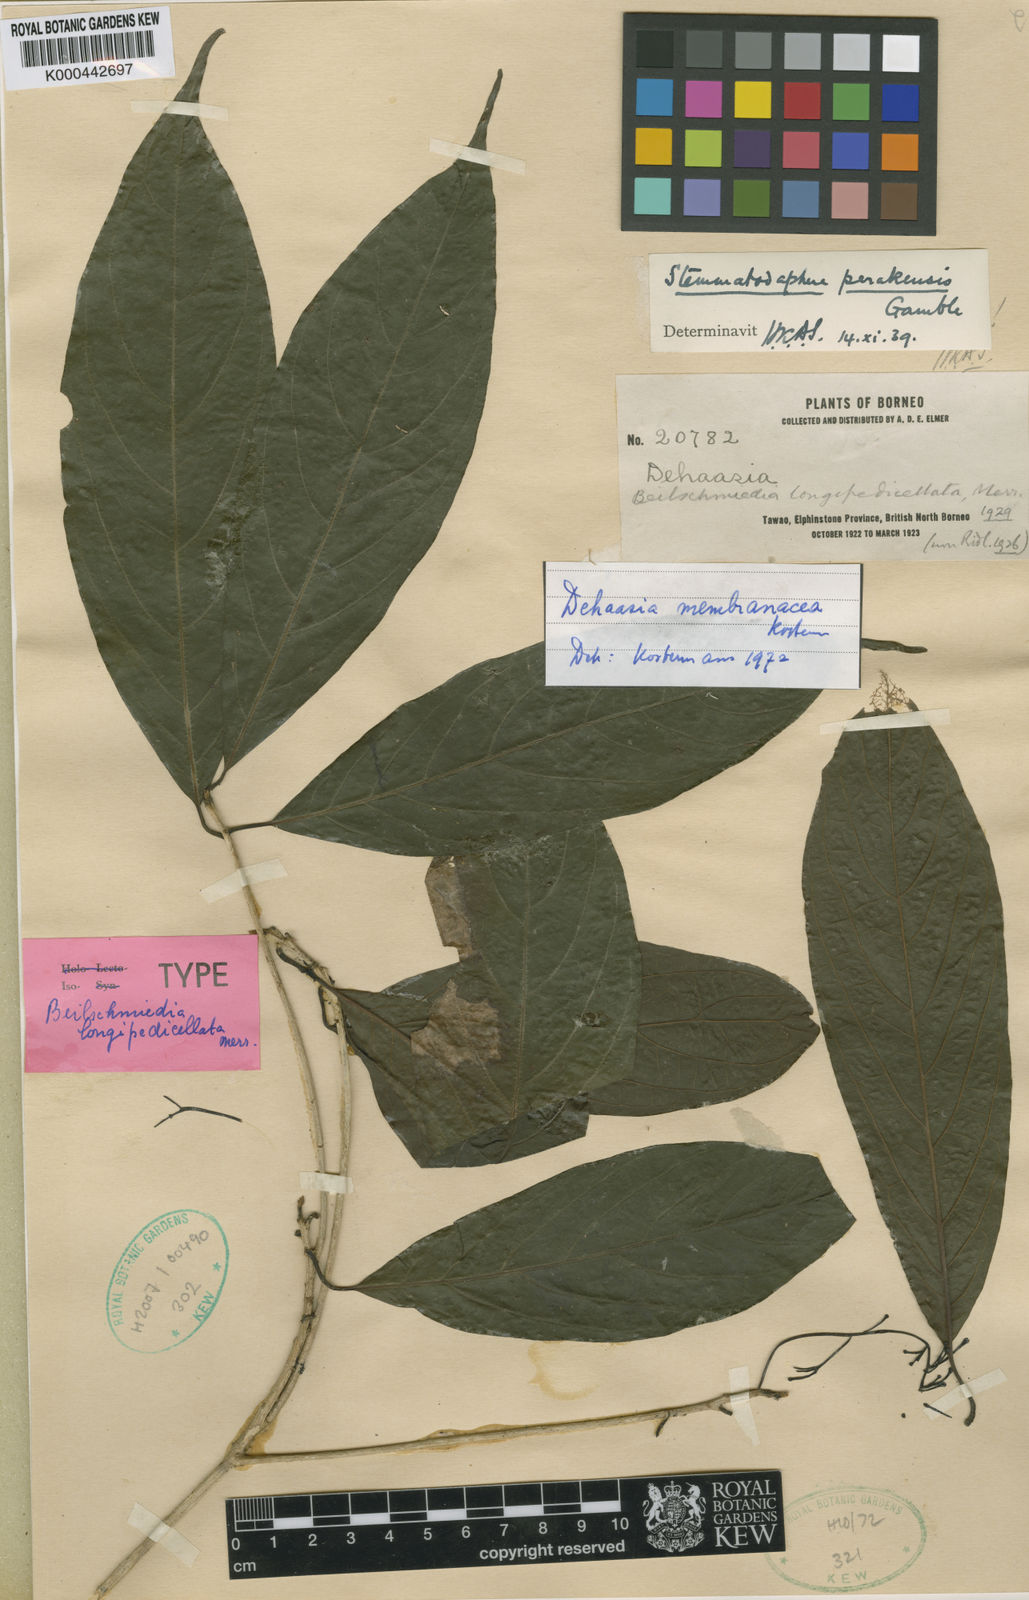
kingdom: Plantae
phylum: Tracheophyta
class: Magnoliopsida
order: Laurales
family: Lauraceae
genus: Dehaasia
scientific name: Dehaasia membranacea
